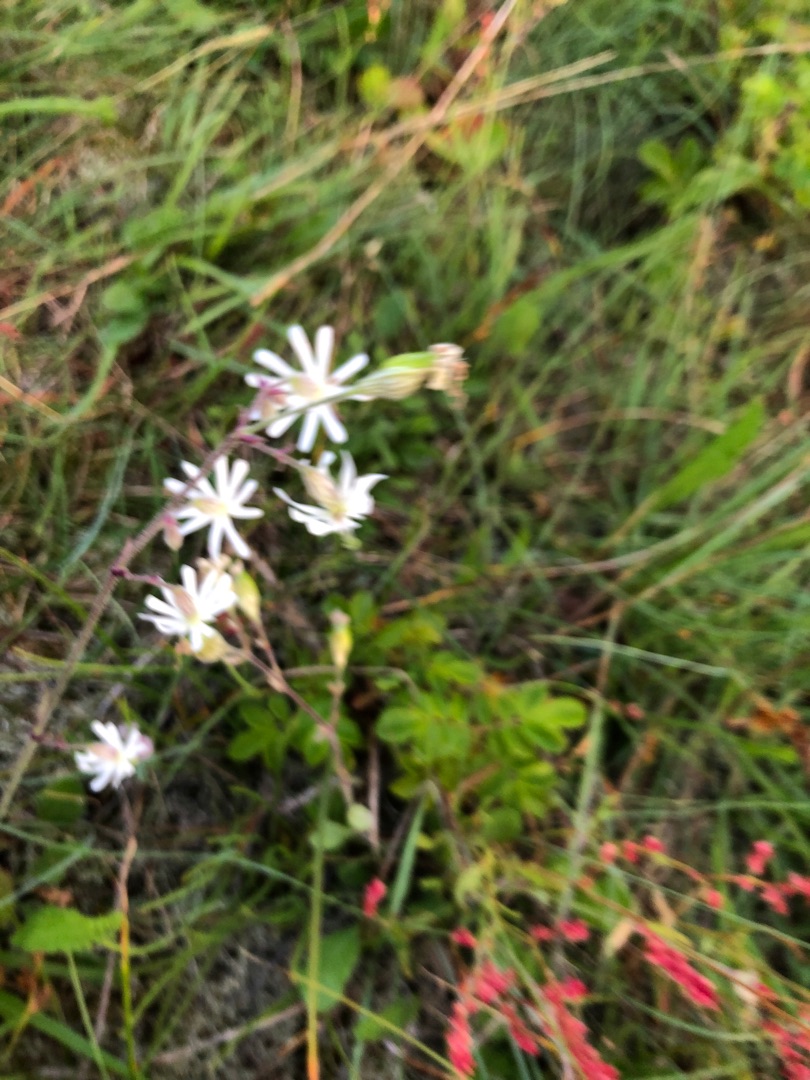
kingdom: Plantae
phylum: Tracheophyta
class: Magnoliopsida
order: Caryophyllales
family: Caryophyllaceae
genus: Silene
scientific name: Silene nutans
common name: Nikkende limurt
